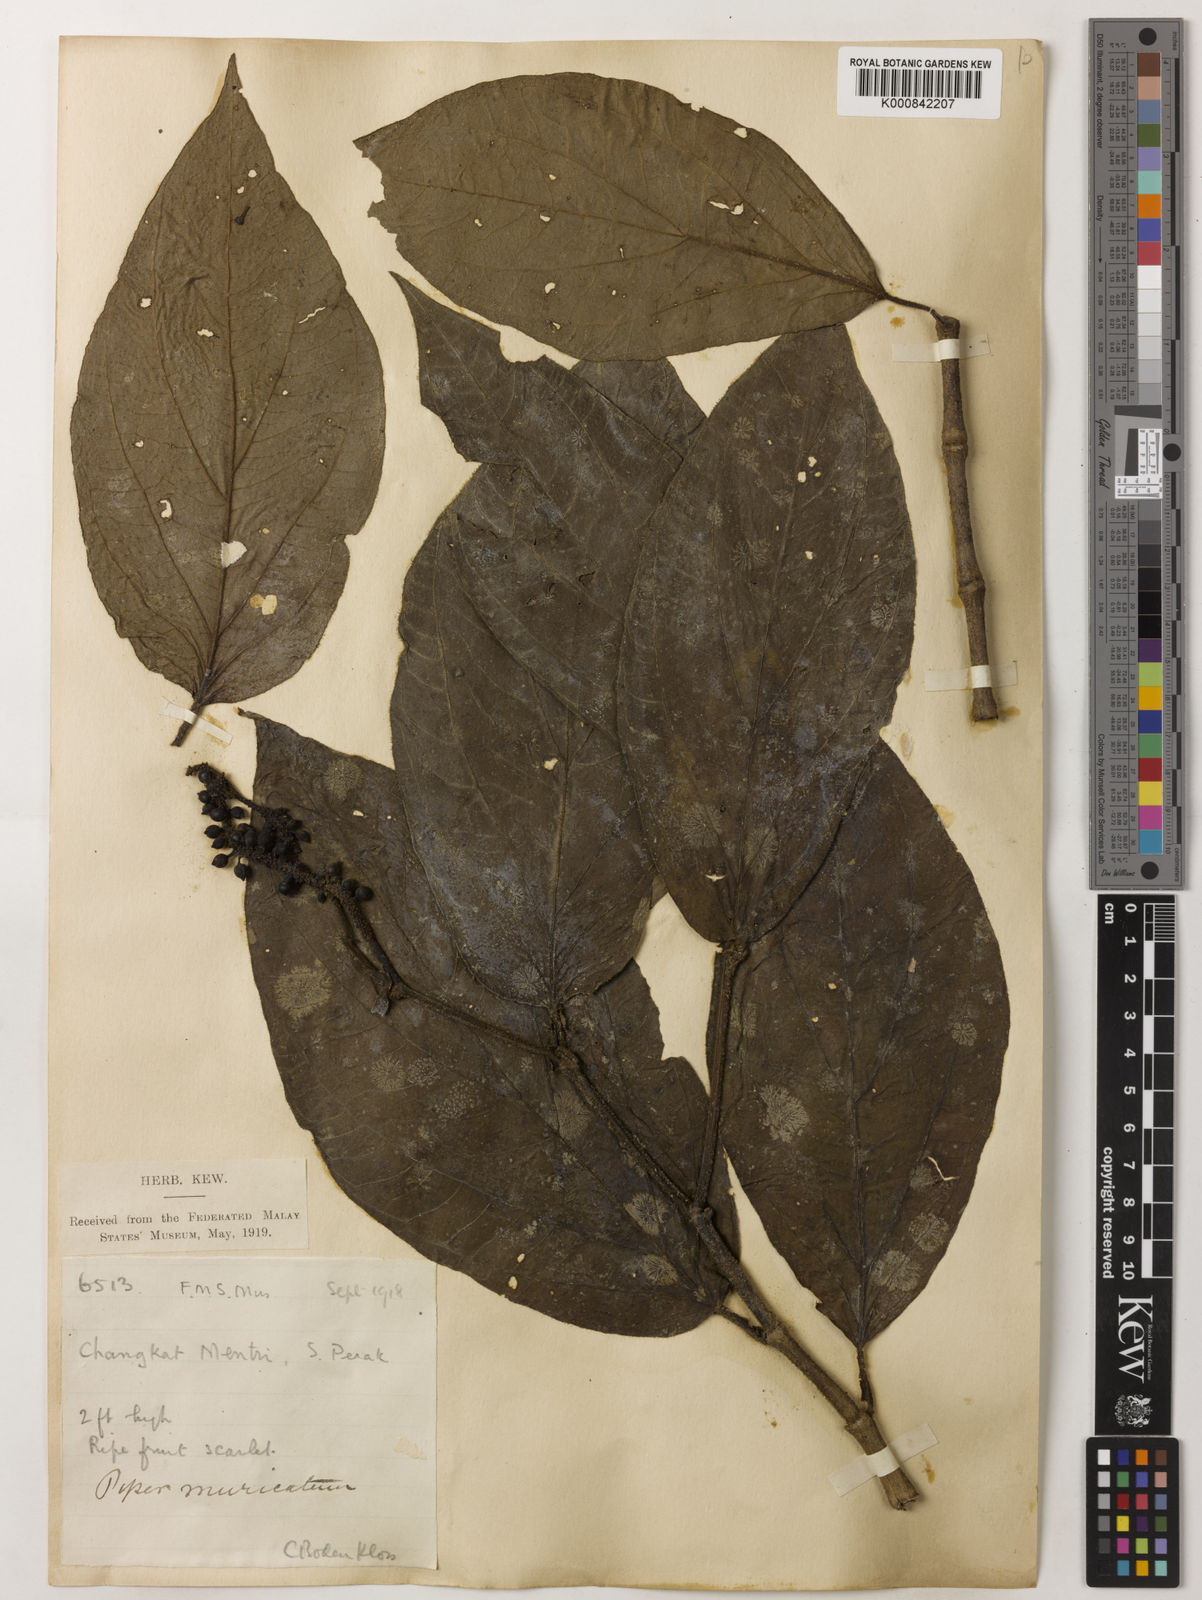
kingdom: Plantae
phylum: Tracheophyta
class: Magnoliopsida
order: Piperales
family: Piperaceae
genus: Piper
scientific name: Piper muricatum
